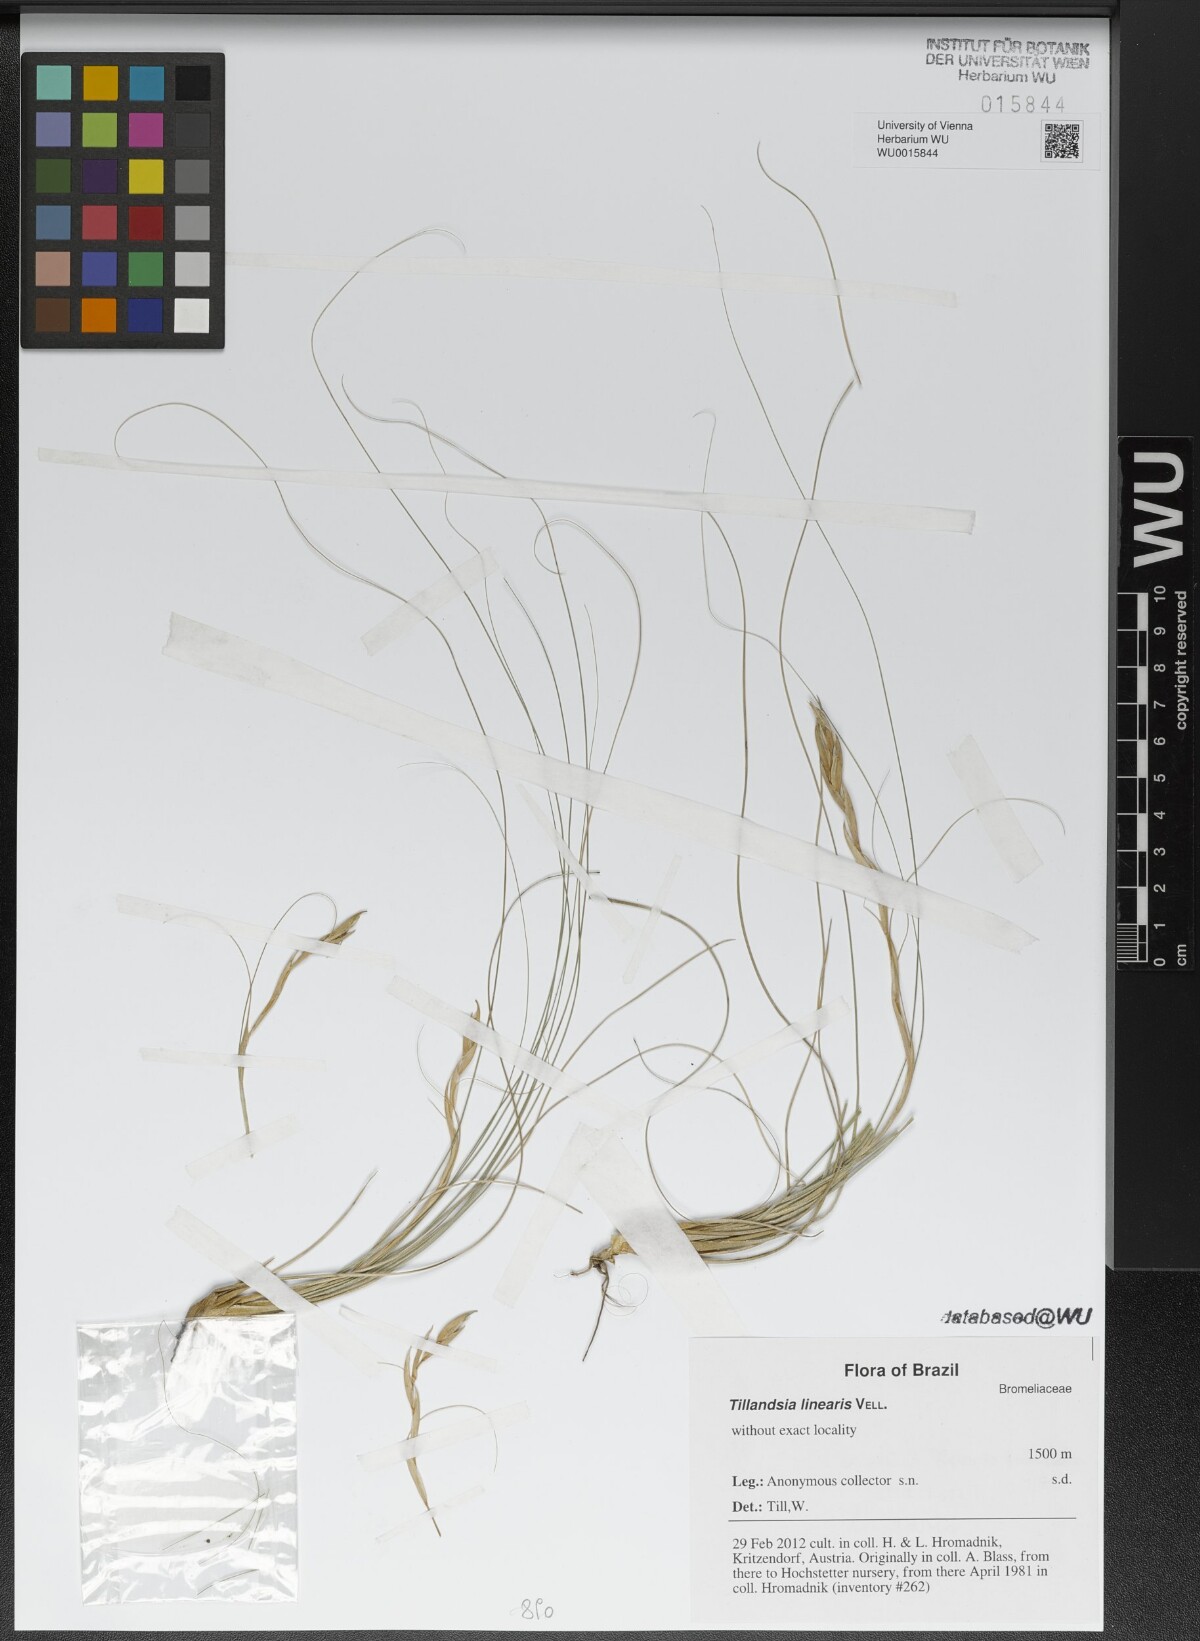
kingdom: Plantae
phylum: Tracheophyta
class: Liliopsida
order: Poales
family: Bromeliaceae
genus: Tillandsia
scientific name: Tillandsia linearis
